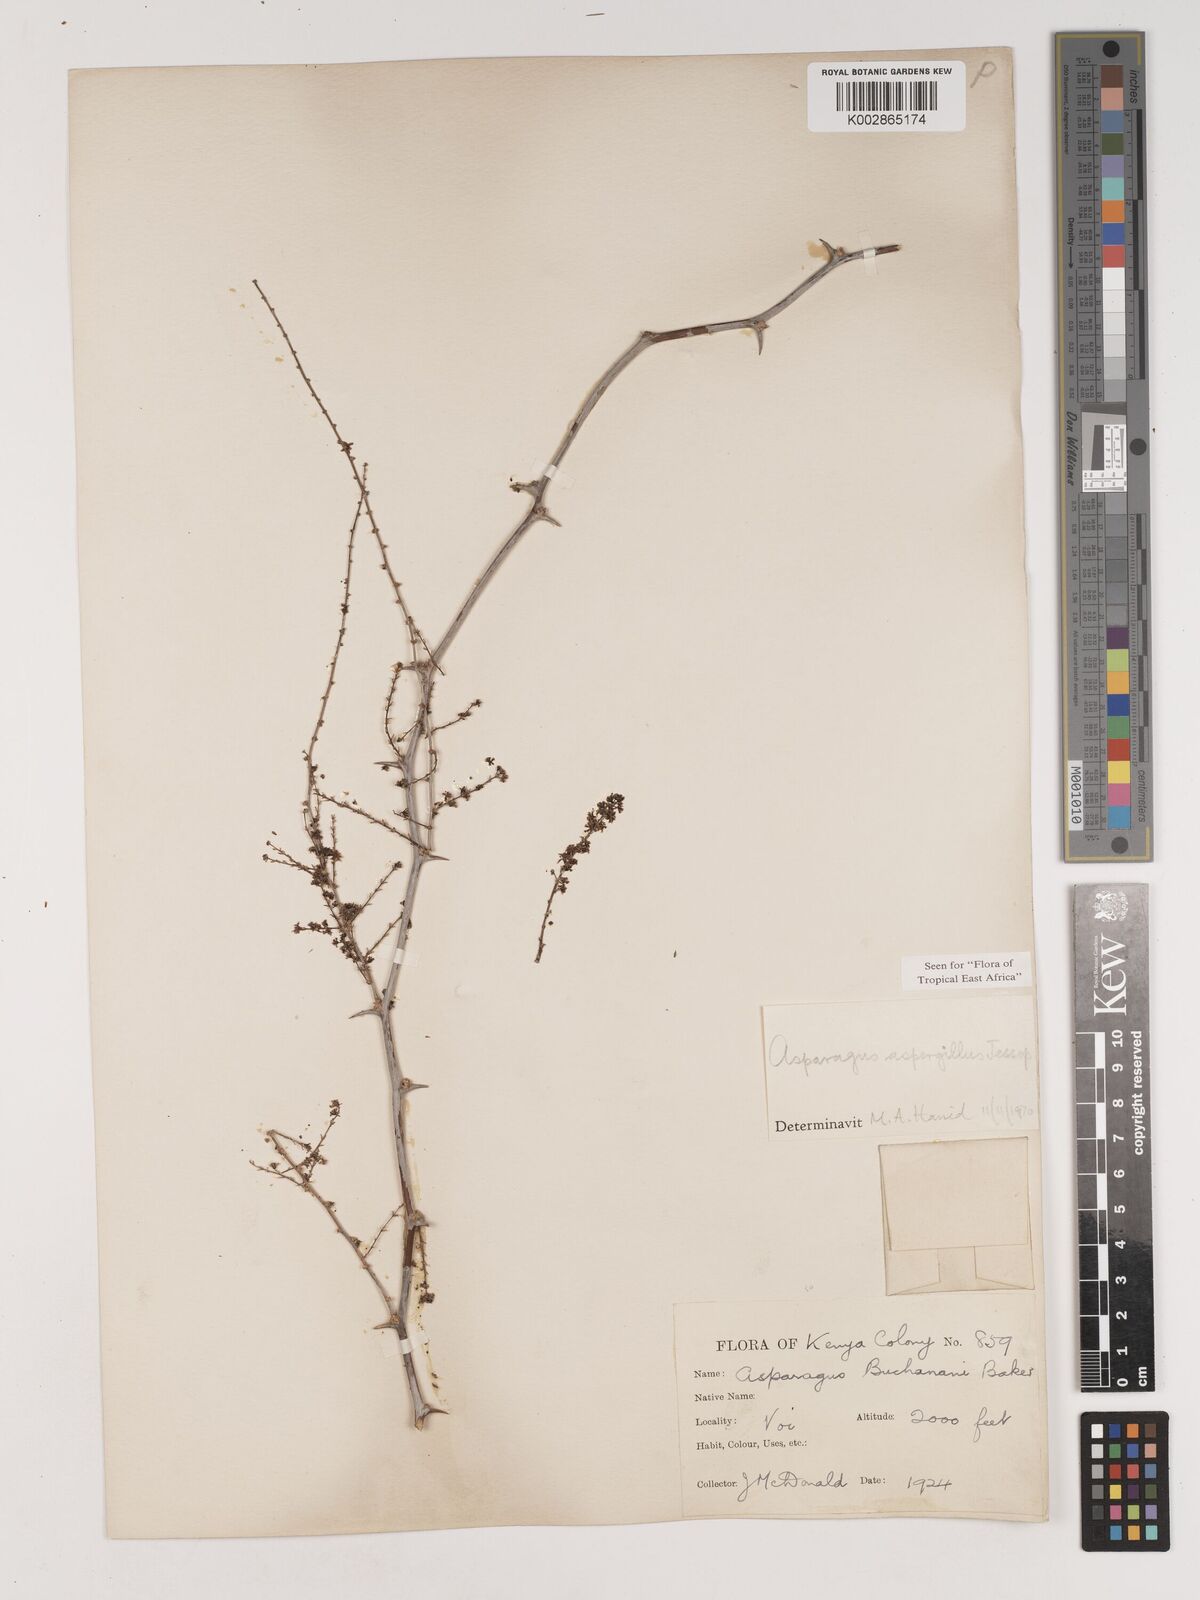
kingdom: Plantae
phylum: Tracheophyta
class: Liliopsida
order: Asparagales
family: Asparagaceae
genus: Asparagus
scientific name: Asparagus aspergillus
